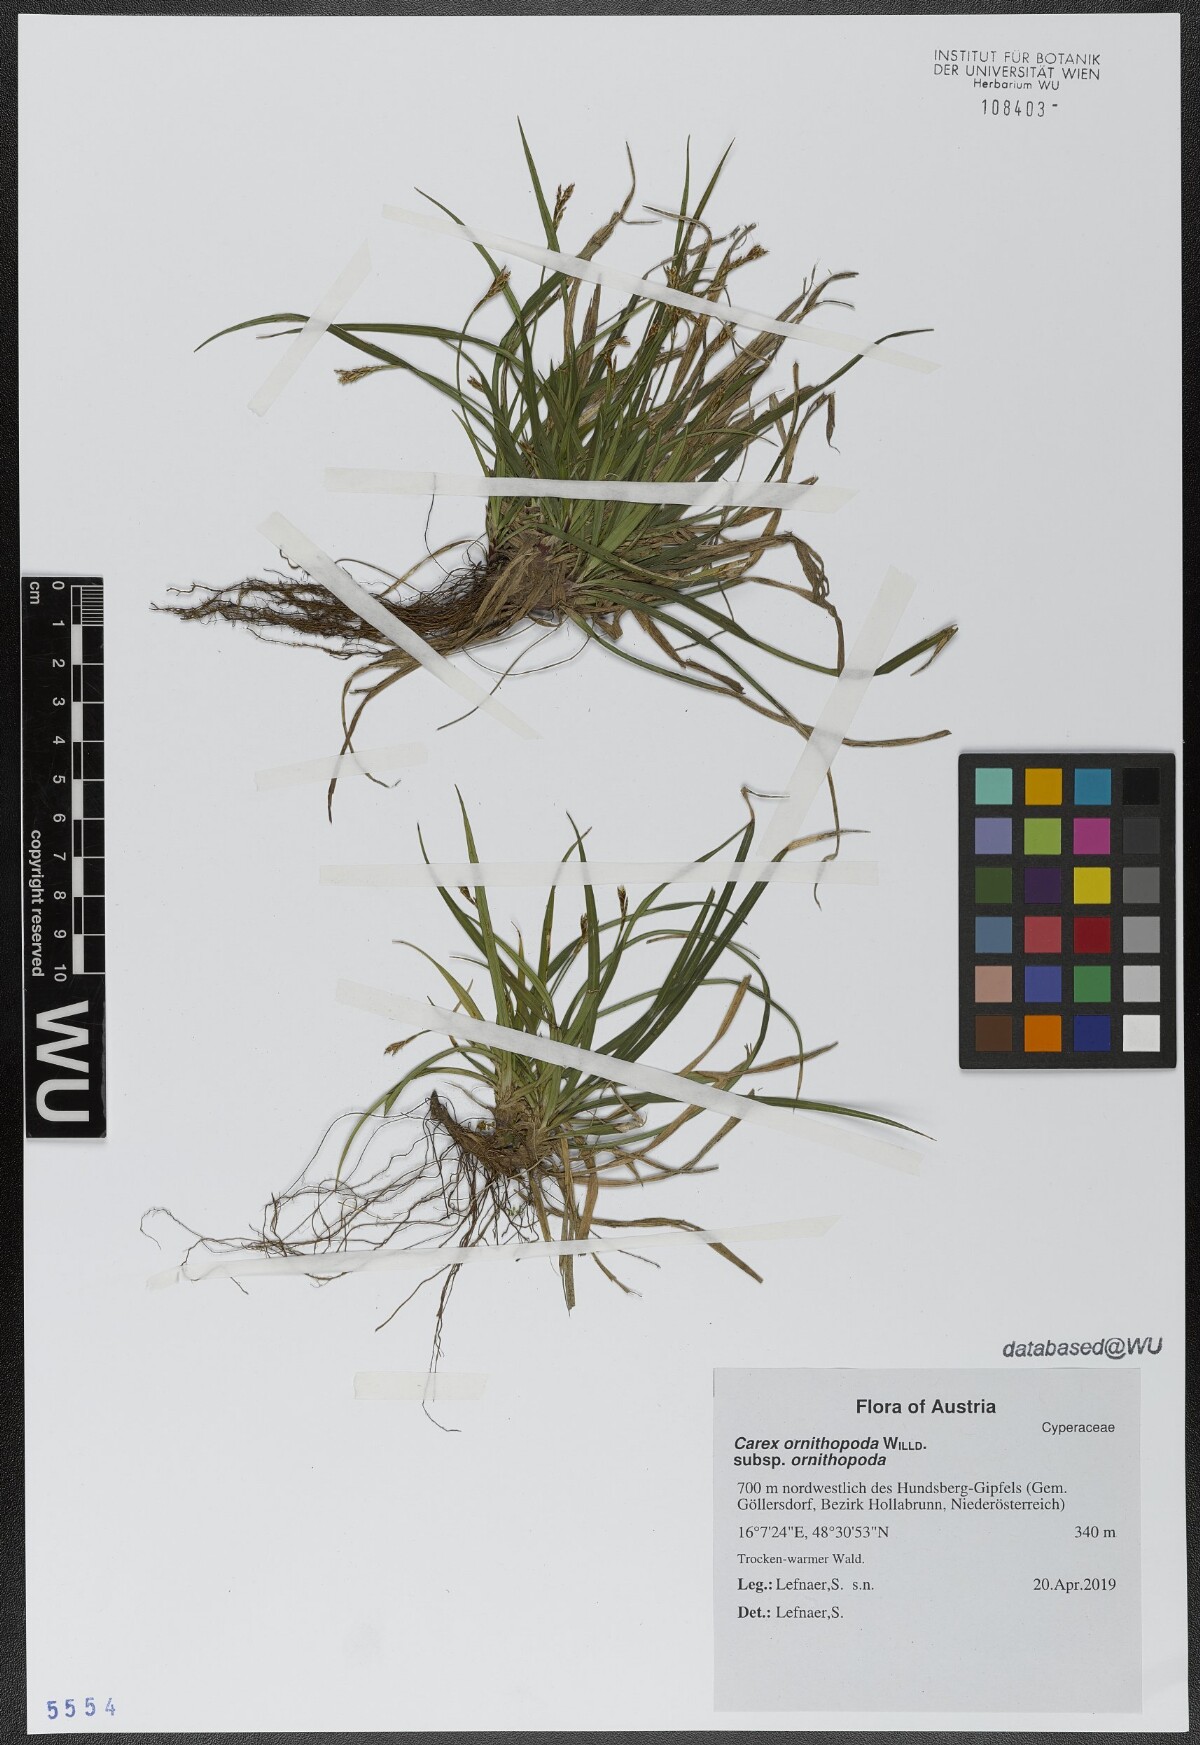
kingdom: Plantae
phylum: Tracheophyta
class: Liliopsida
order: Poales
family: Cyperaceae
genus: Carex
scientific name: Carex ornithopoda
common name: Bird's-foot sedge
